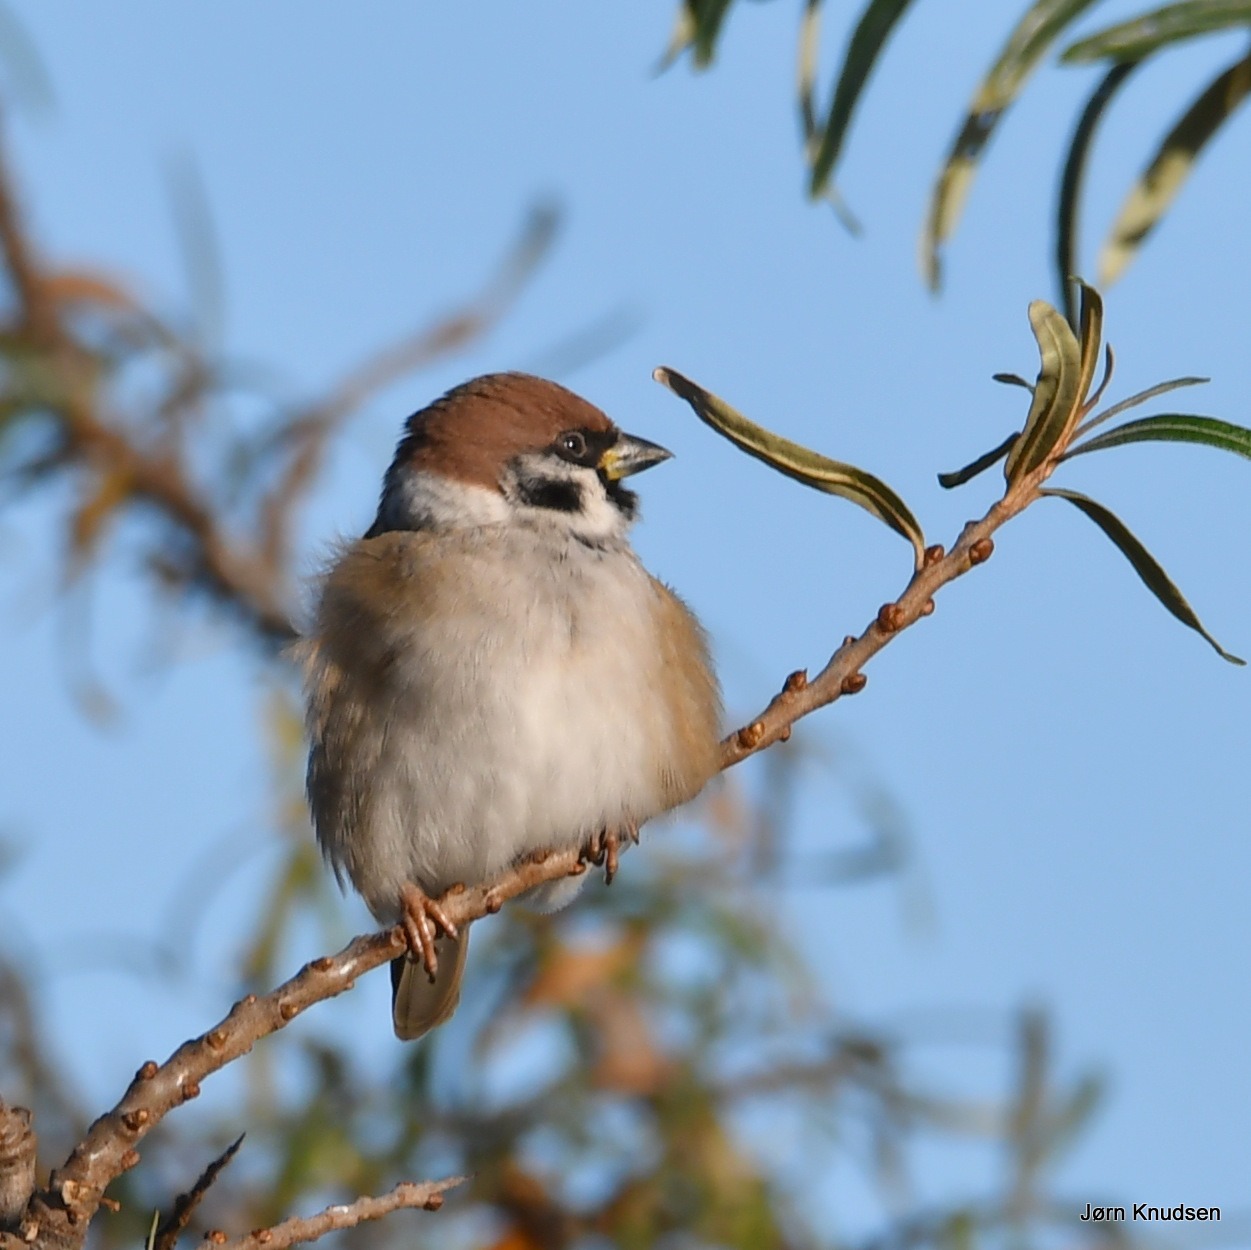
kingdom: Animalia
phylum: Chordata
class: Aves
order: Passeriformes
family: Passeridae
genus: Passer
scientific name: Passer montanus
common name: Skovspurv
